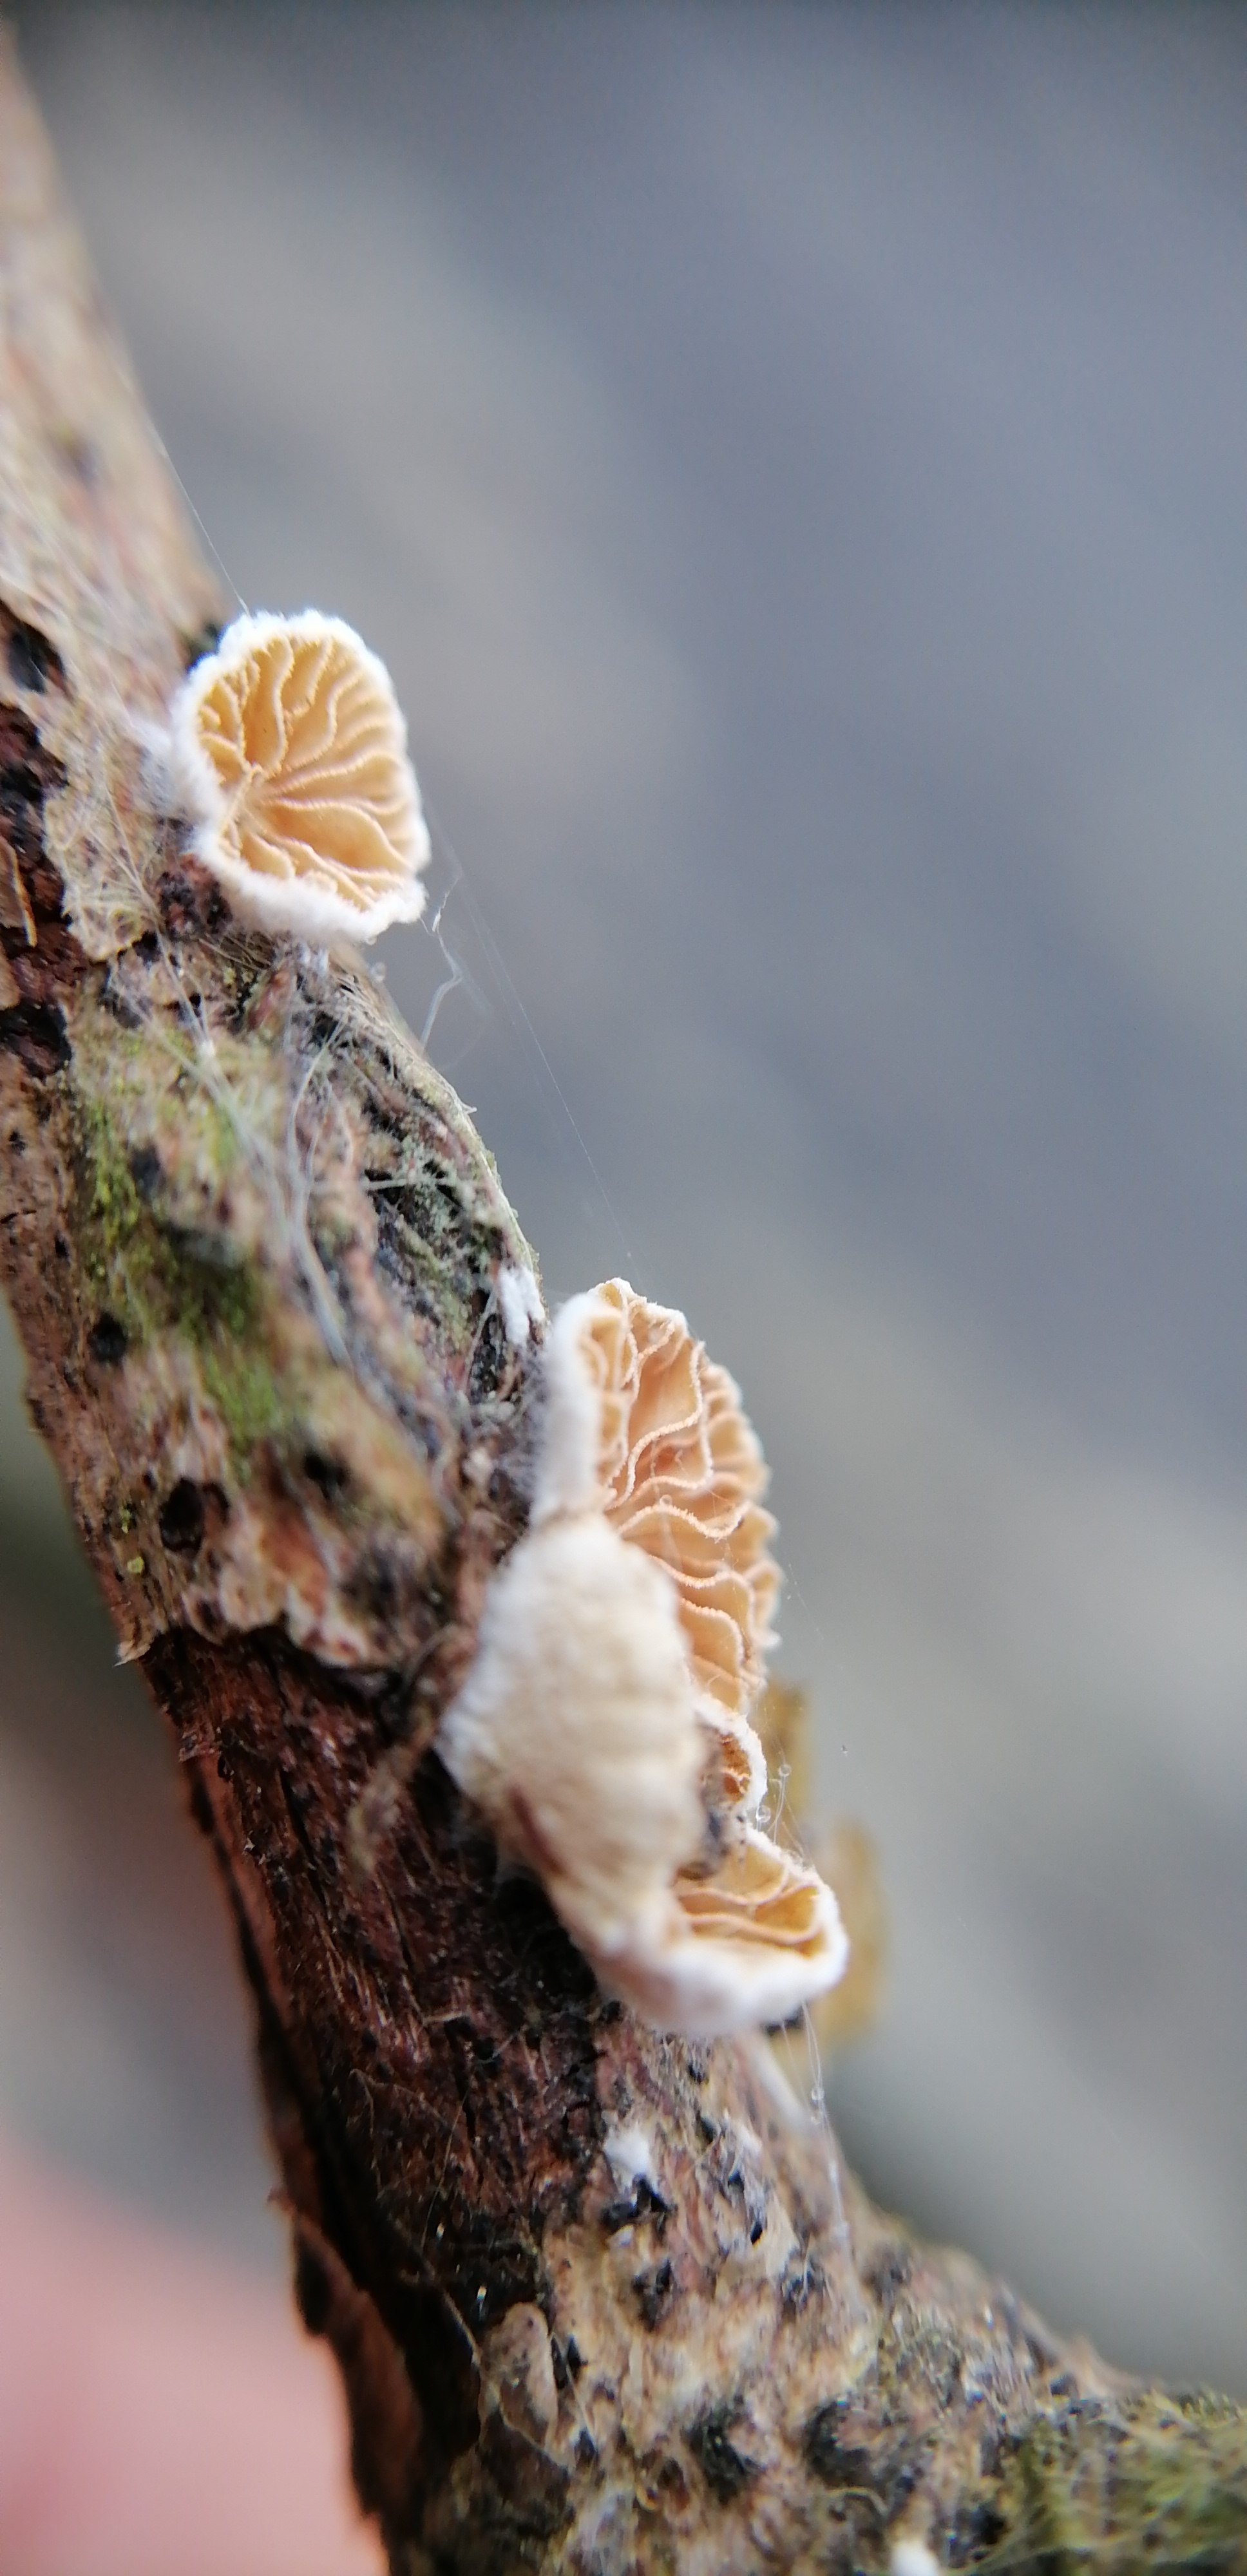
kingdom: Fungi
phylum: Basidiomycota
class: Agaricomycetes
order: Agaricales
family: Crepidotaceae
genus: Crepidotus
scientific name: Crepidotus
